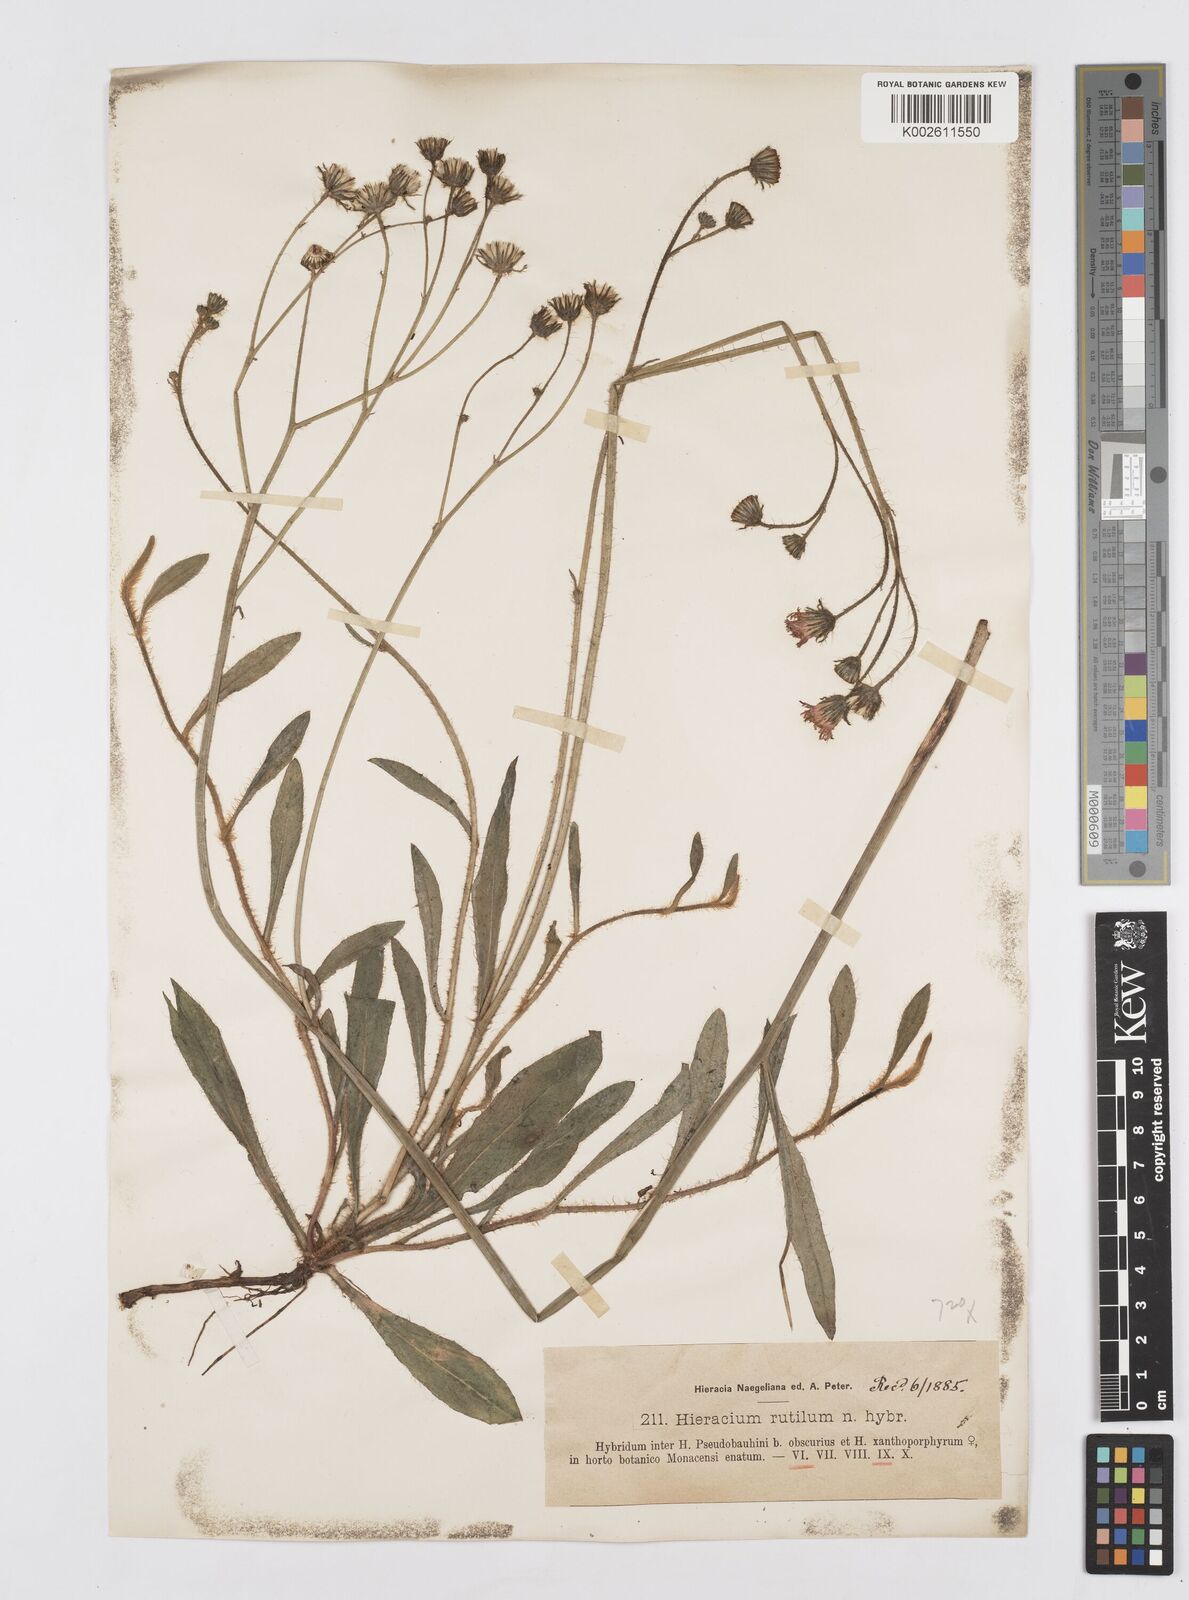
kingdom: Plantae
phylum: Tracheophyta
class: Magnoliopsida
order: Asterales
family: Asteraceae
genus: Hieracium
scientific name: Hieracium
